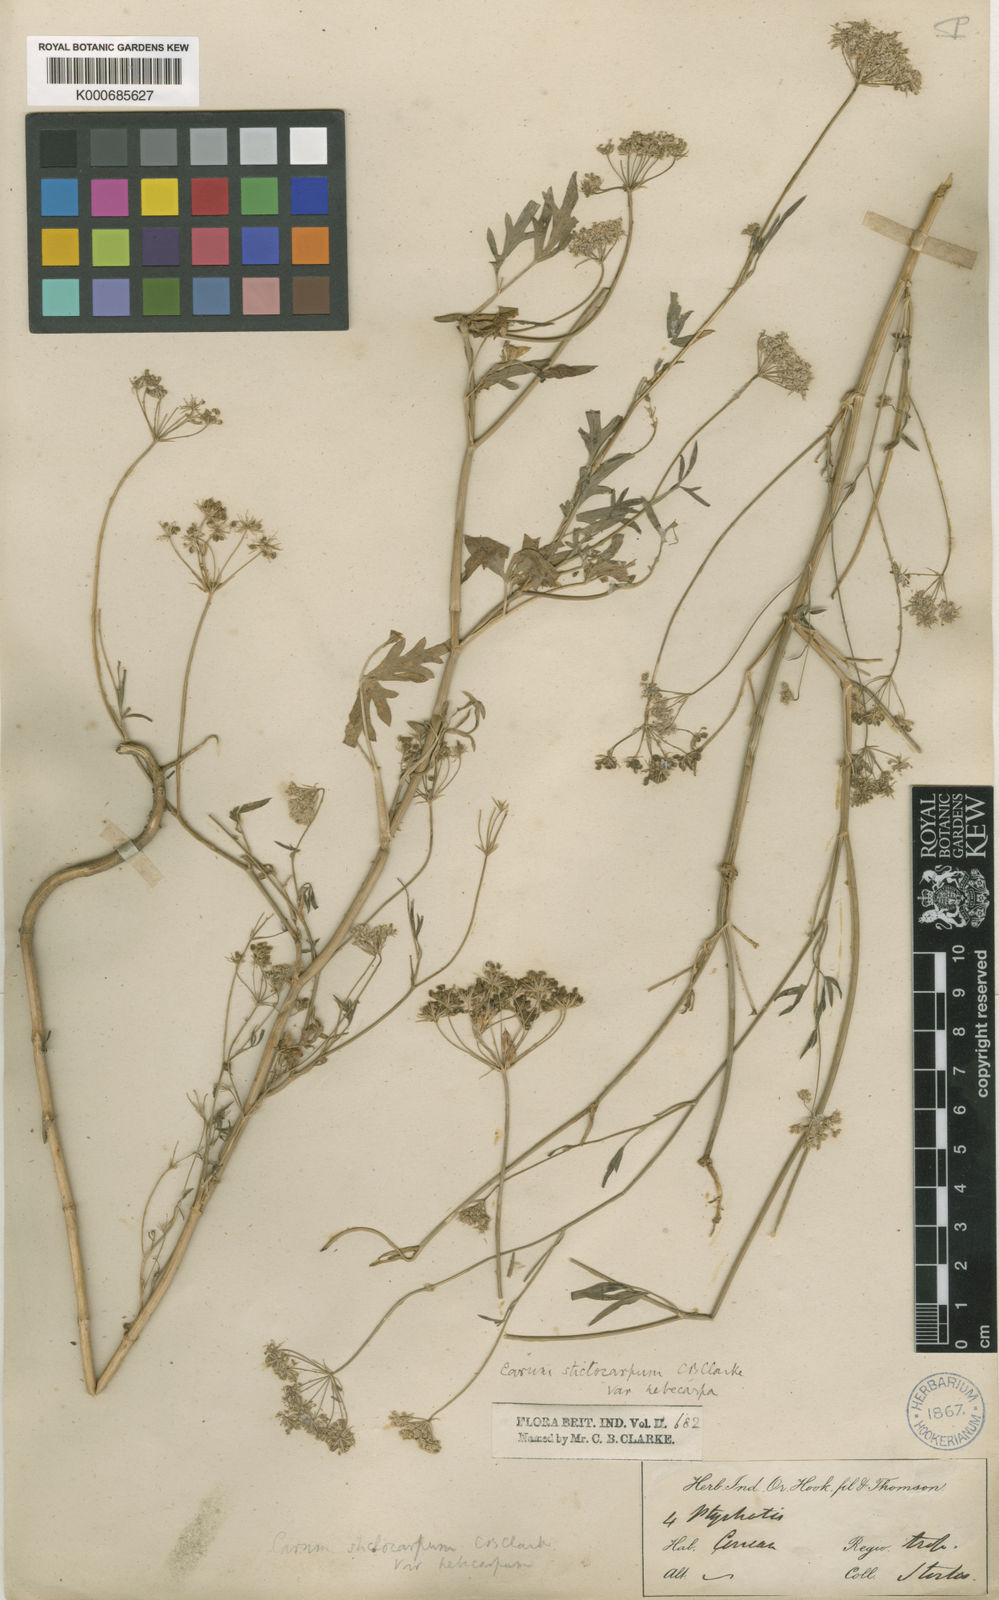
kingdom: Plantae
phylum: Tracheophyta
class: Magnoliopsida
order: Apiales
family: Apiaceae
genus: Psammogeton
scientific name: Psammogeton involucratum
